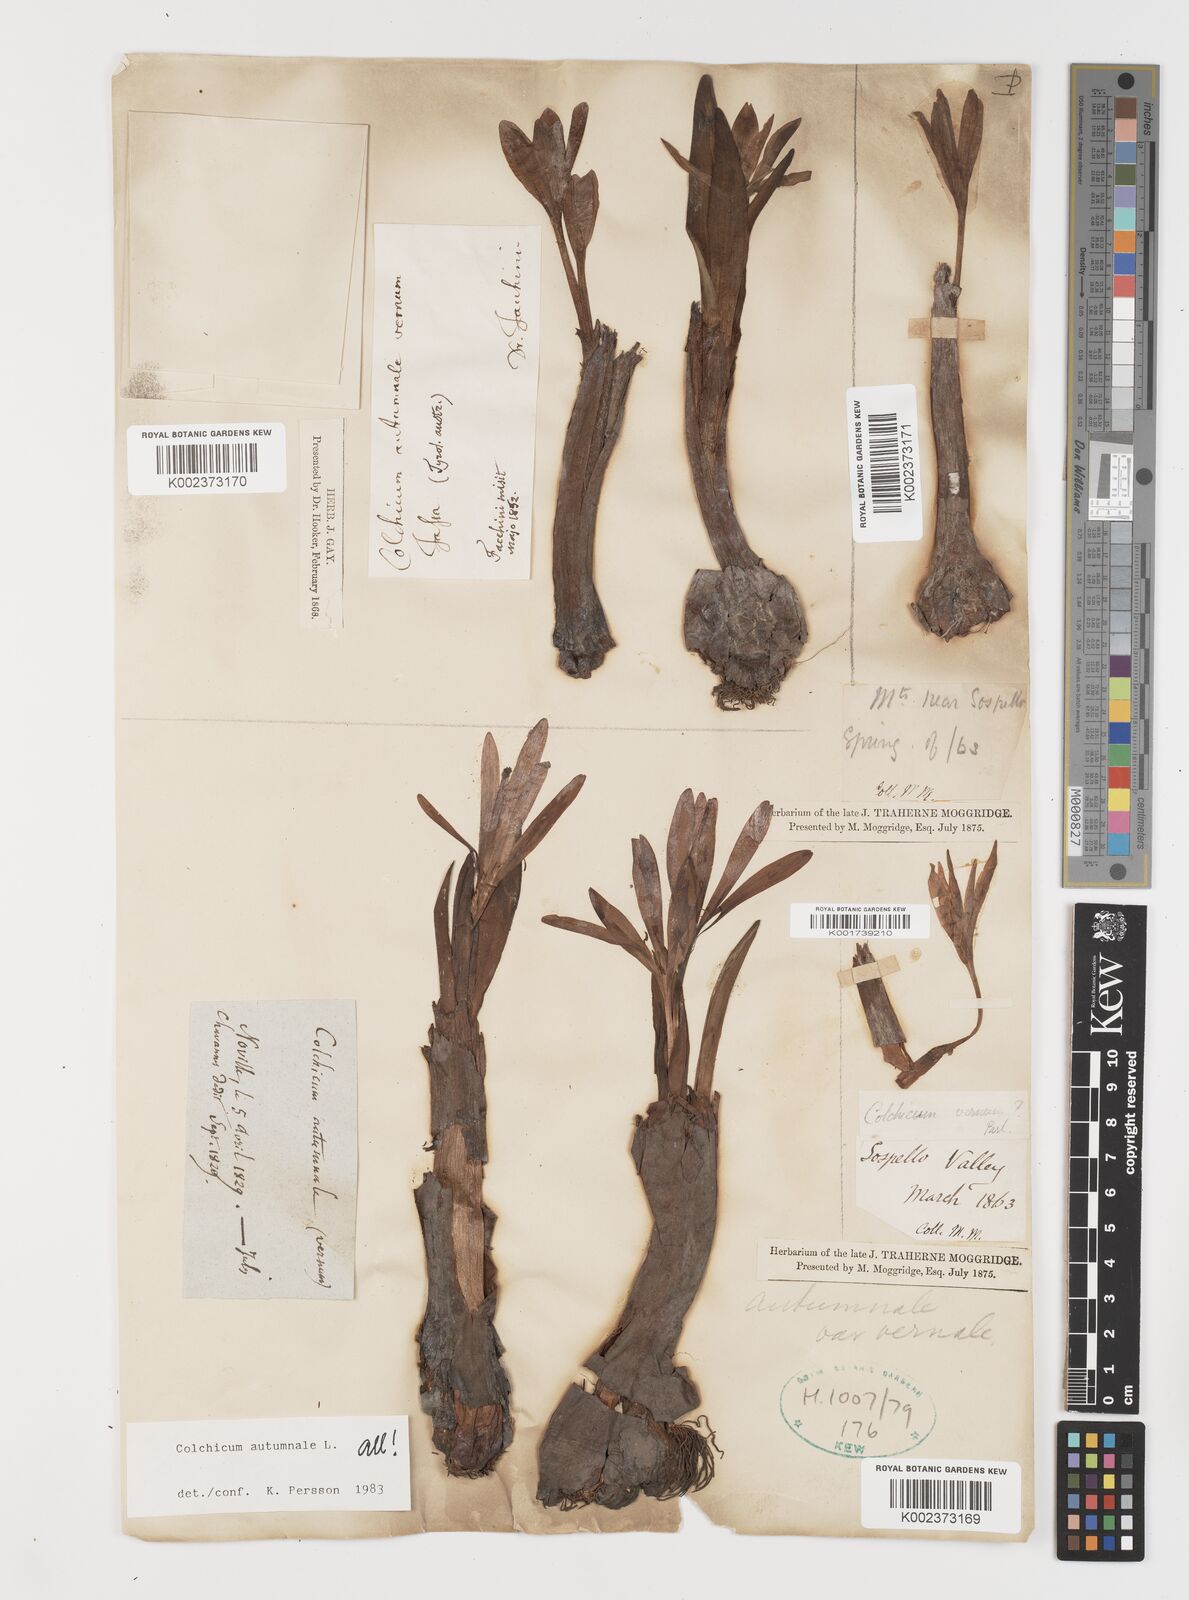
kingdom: Plantae
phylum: Tracheophyta
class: Liliopsida
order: Liliales
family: Colchicaceae
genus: Colchicum
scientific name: Colchicum autumnale
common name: Autumn crocus
